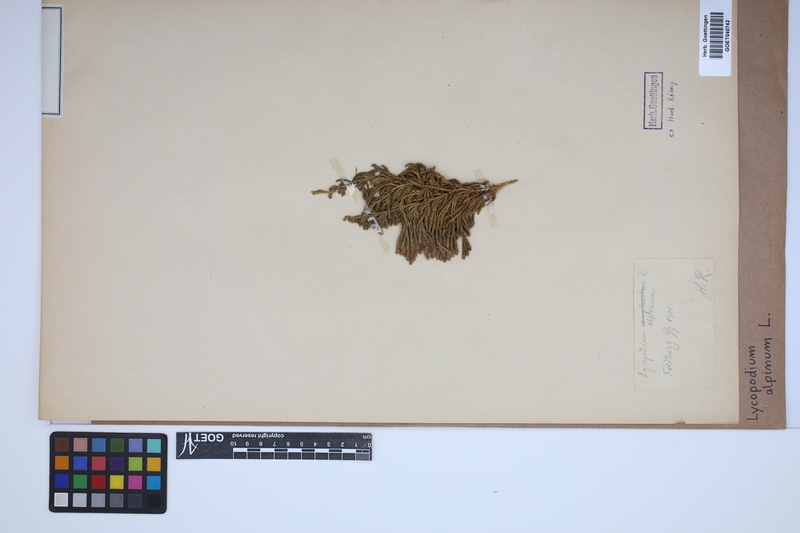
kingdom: Plantae
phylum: Tracheophyta
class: Lycopodiopsida
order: Lycopodiales
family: Lycopodiaceae
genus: Diphasiastrum
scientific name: Diphasiastrum alpinum
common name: Alpine clubmoss
